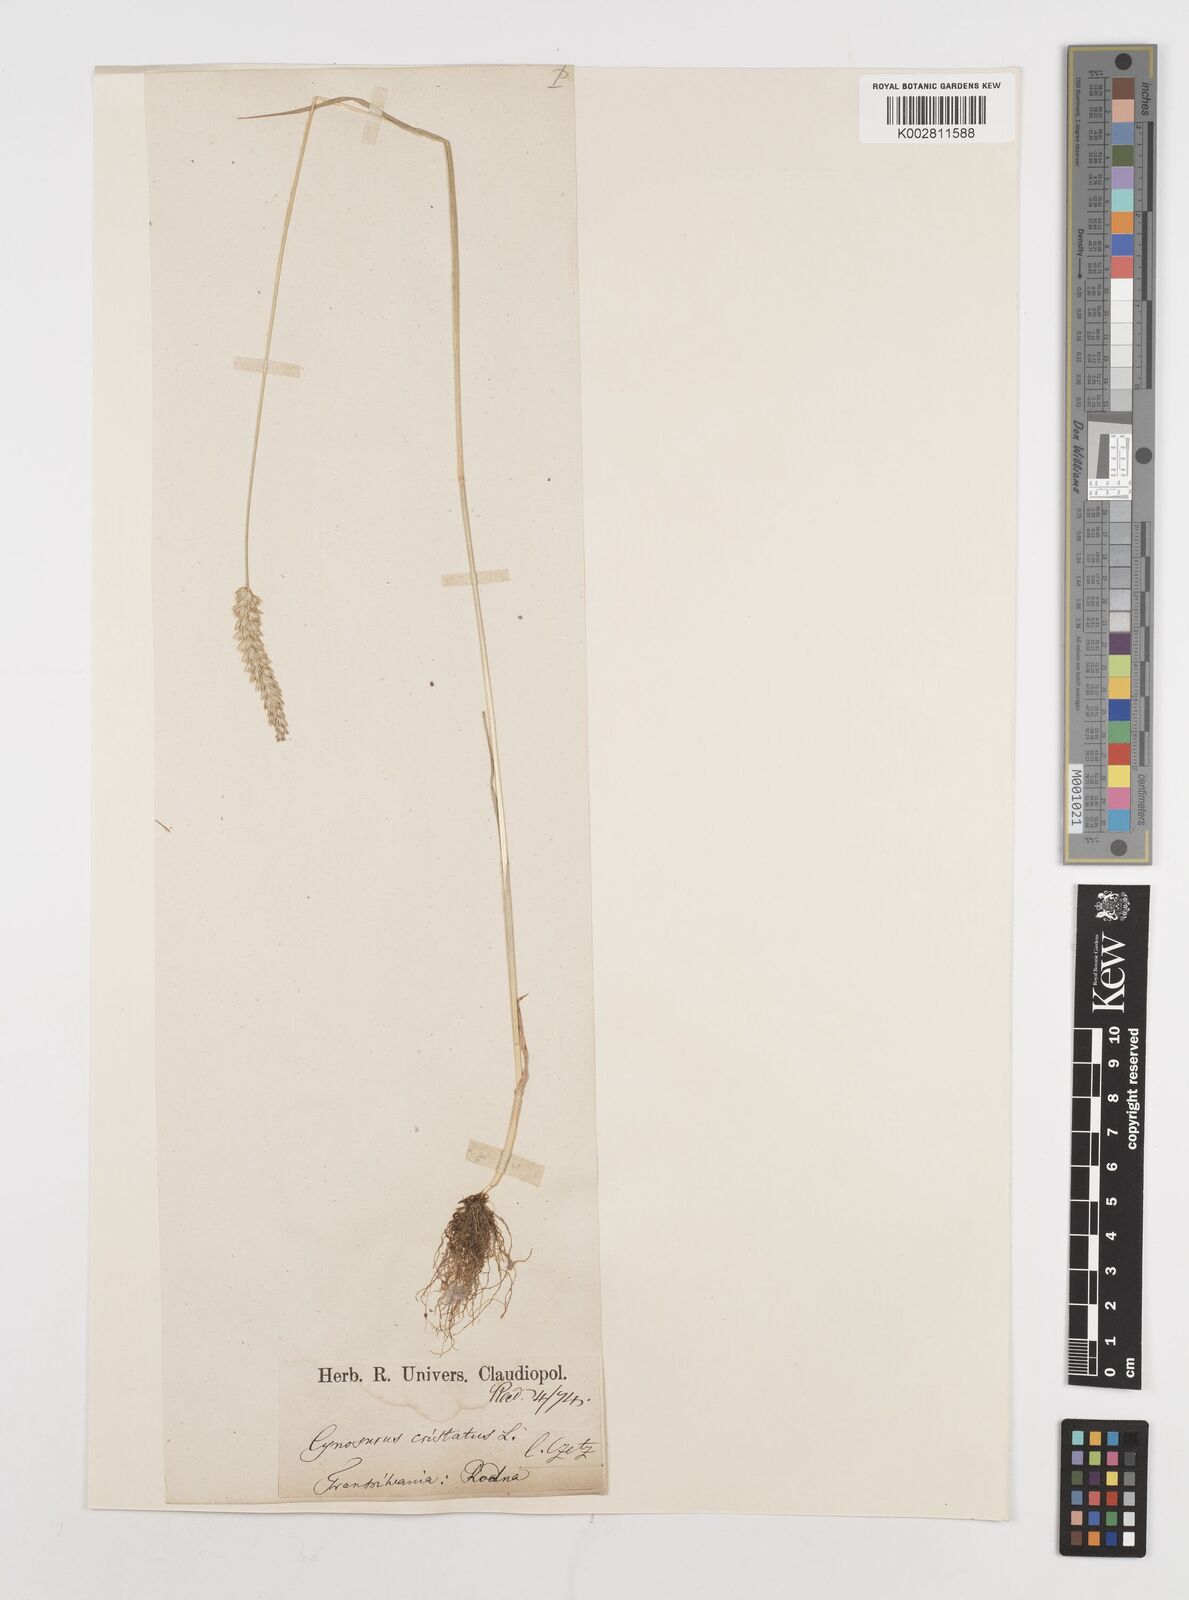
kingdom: Plantae
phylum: Tracheophyta
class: Liliopsida
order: Poales
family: Poaceae
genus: Cynosurus
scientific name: Cynosurus cristatus
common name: Crested dog's-tail
